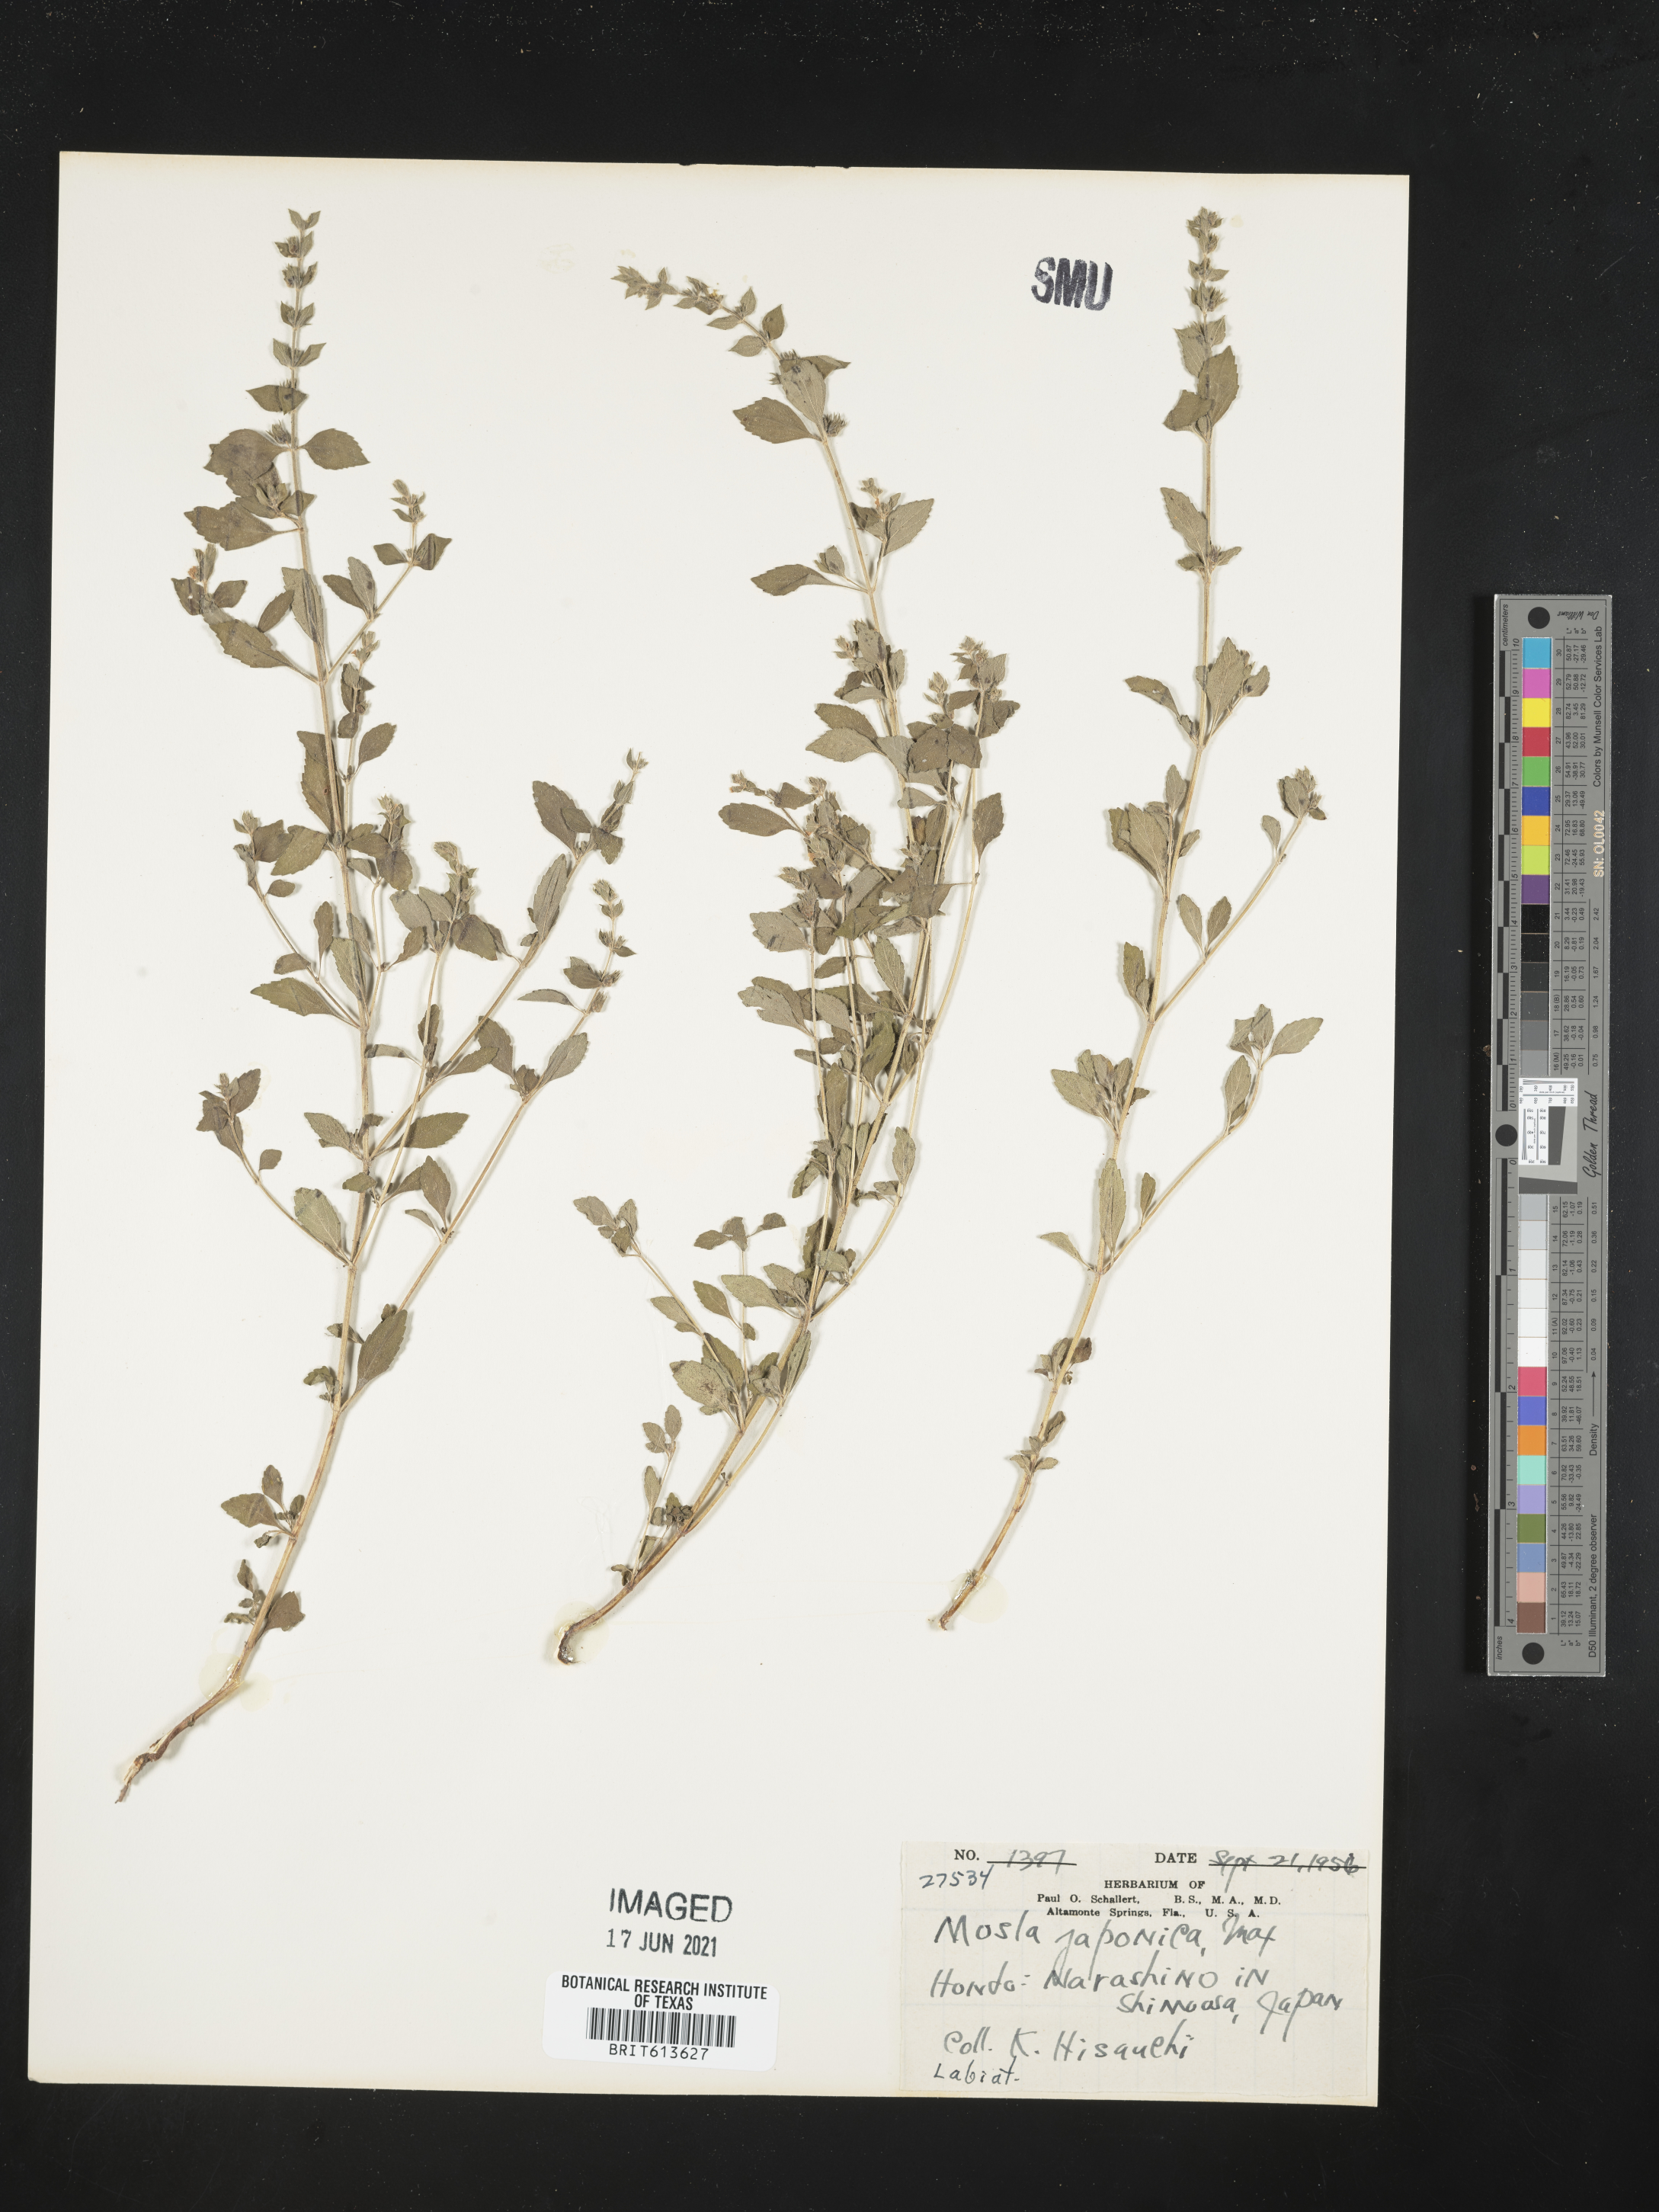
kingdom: Plantae
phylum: Tracheophyta
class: Magnoliopsida
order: Lamiales
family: Lamiaceae
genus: Mosla
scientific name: Mosla japonica
